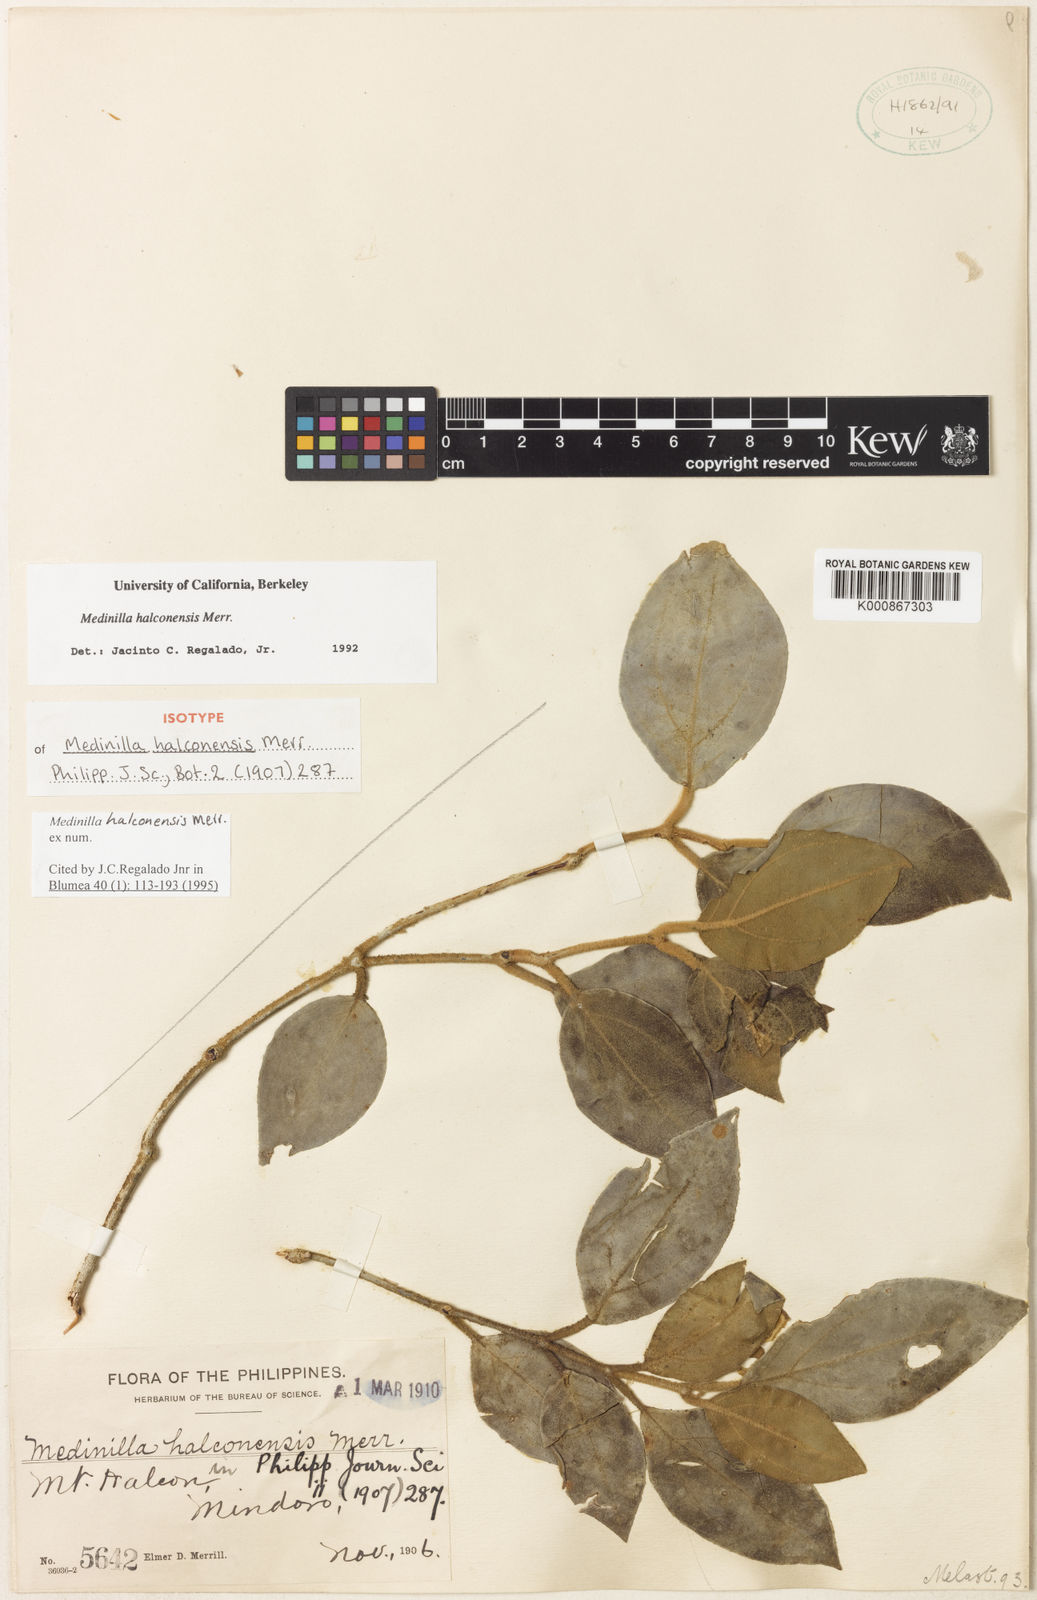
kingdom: Plantae
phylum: Tracheophyta
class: Magnoliopsida
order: Myrtales
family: Melastomataceae
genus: Medinilla
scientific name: Medinilla halconensis
